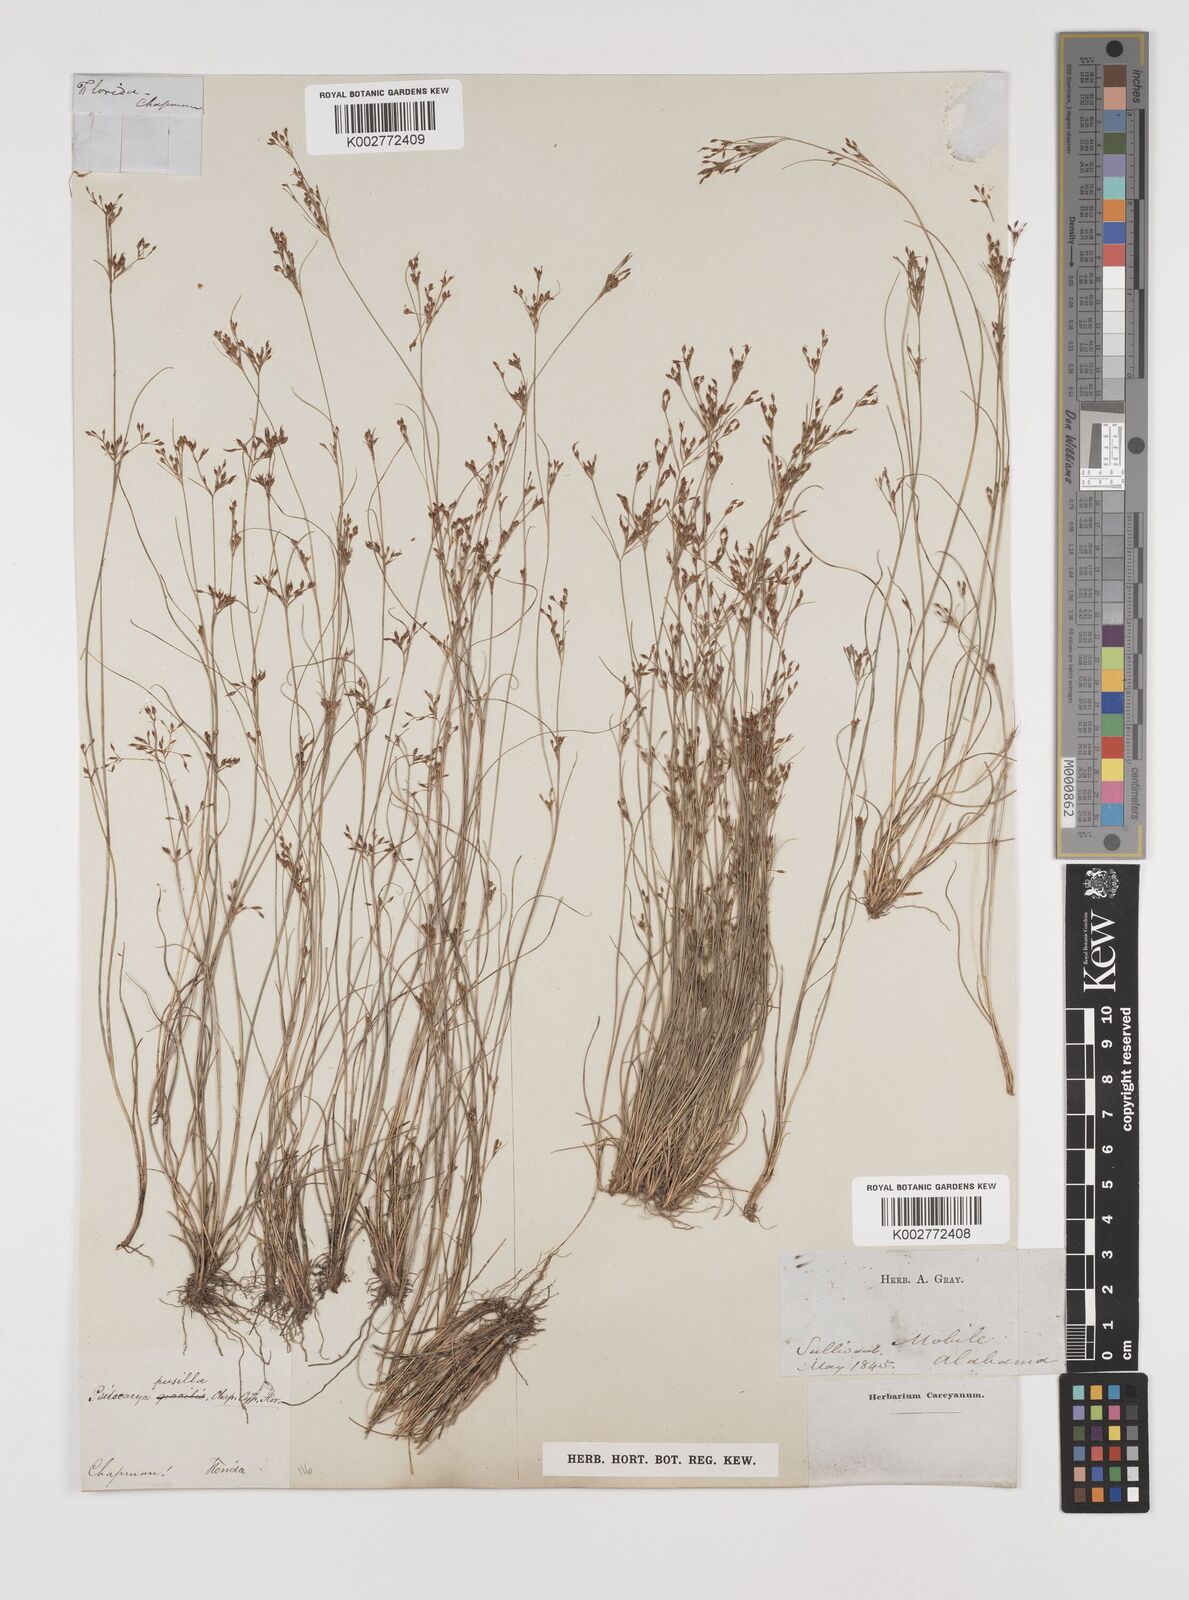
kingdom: Plantae
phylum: Tracheophyta
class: Liliopsida
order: Poales
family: Cyperaceae
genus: Rhynchospora
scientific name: Rhynchospora intermixta
